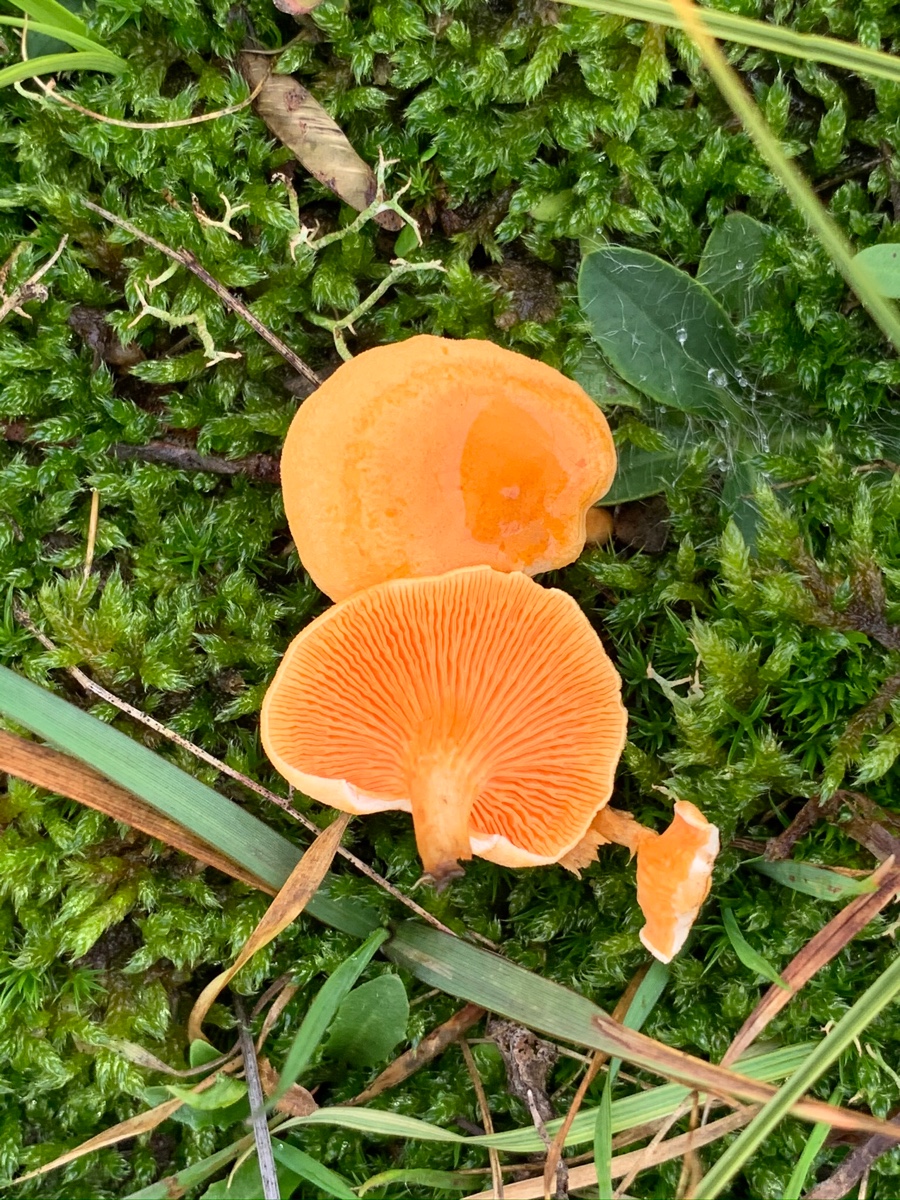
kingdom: Fungi
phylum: Basidiomycota
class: Agaricomycetes
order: Boletales
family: Hygrophoropsidaceae
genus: Hygrophoropsis
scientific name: Hygrophoropsis aurantiaca
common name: almindelig orangekantarel
